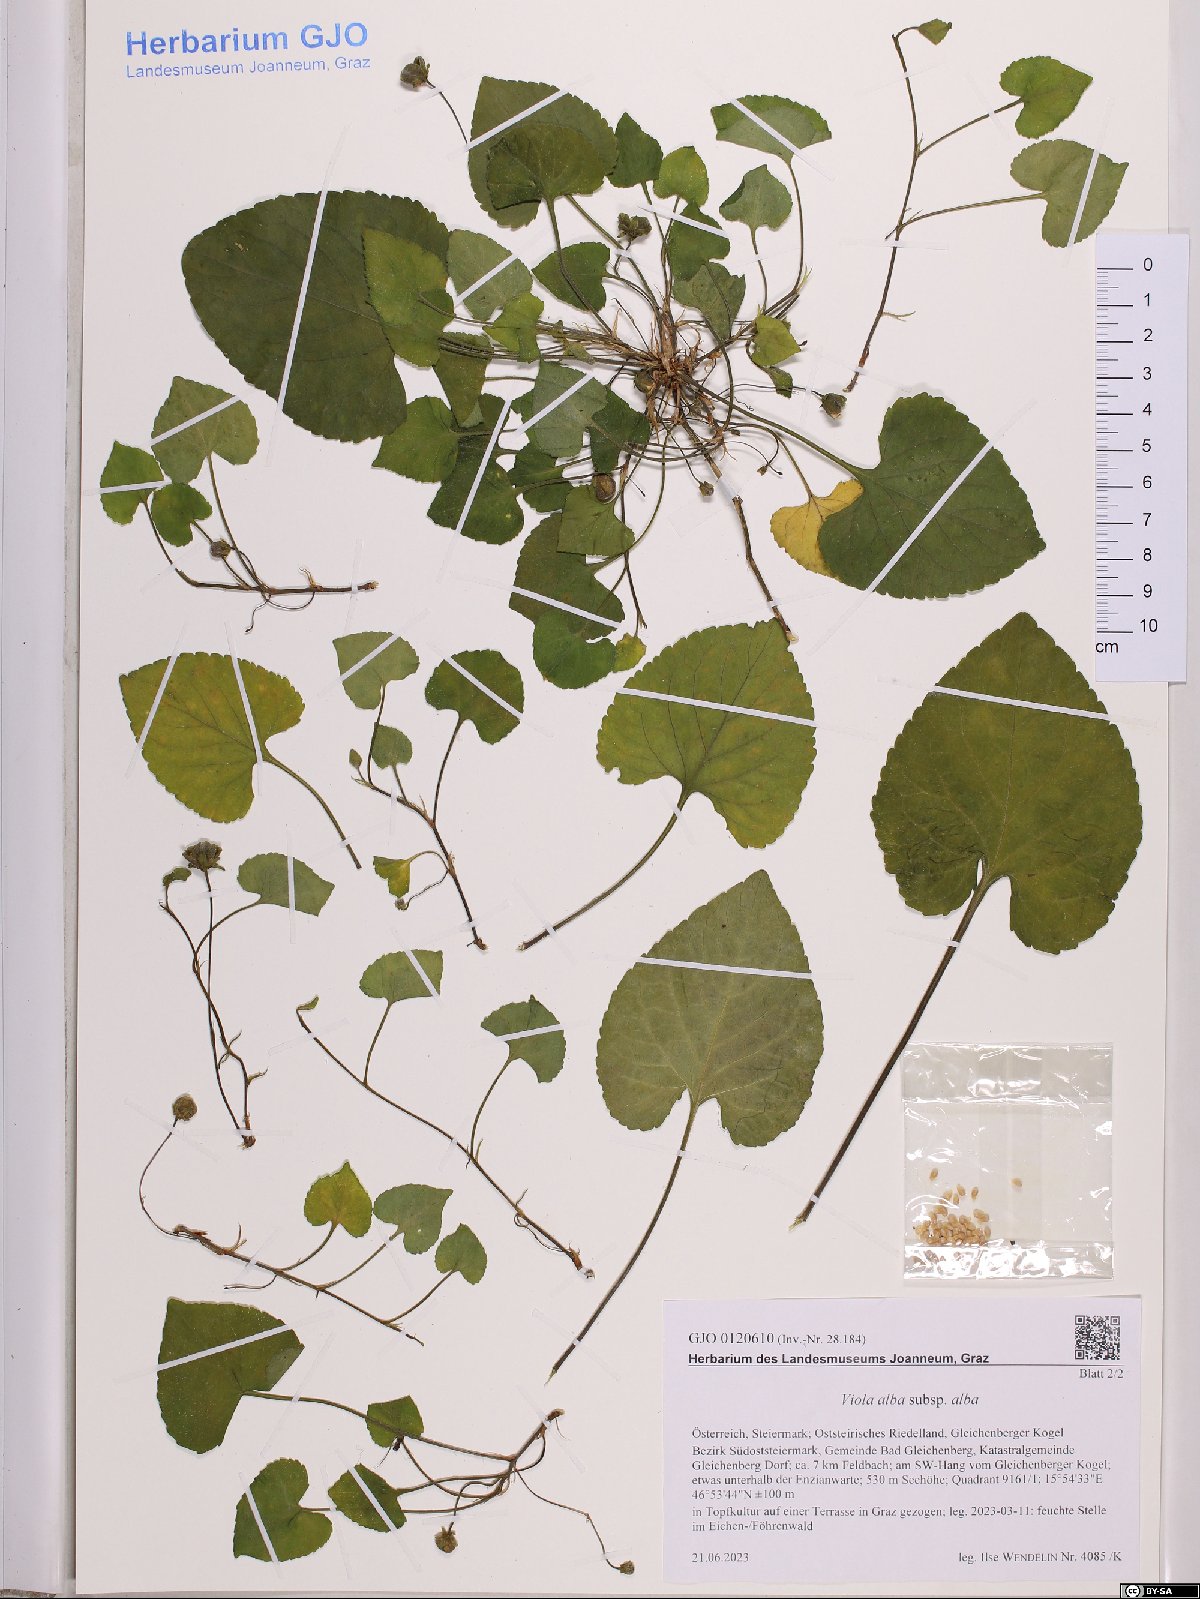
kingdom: Plantae
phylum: Tracheophyta
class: Magnoliopsida
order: Malpighiales
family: Violaceae
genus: Viola
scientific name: Viola alba
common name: White violet
